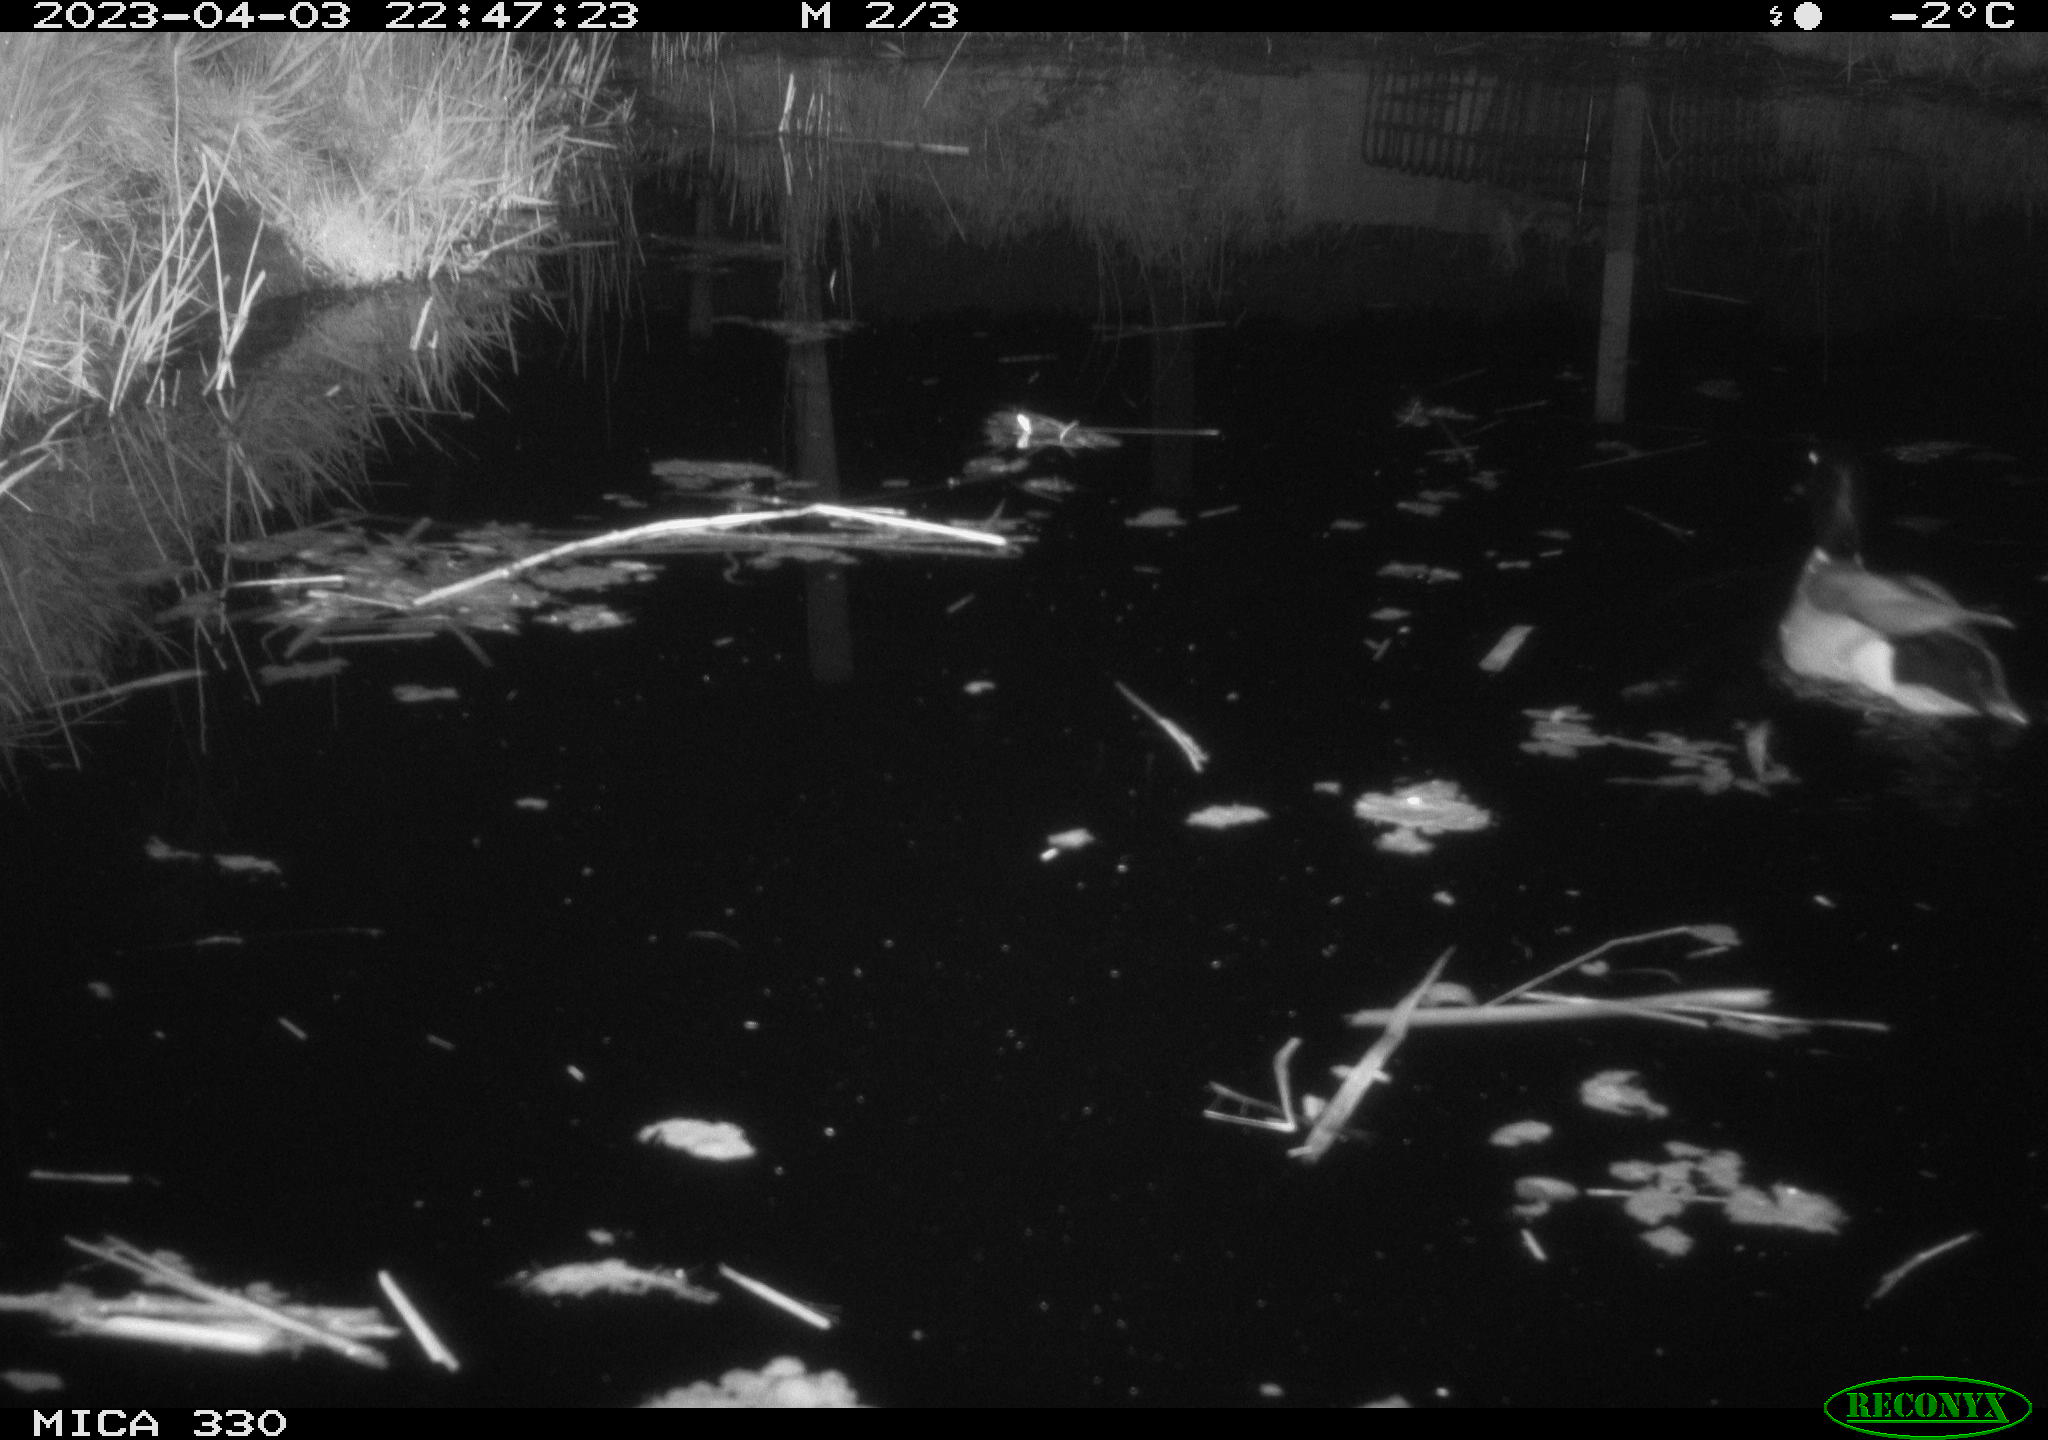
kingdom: Animalia
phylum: Chordata
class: Aves
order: Anseriformes
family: Anatidae
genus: Anas
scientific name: Anas
